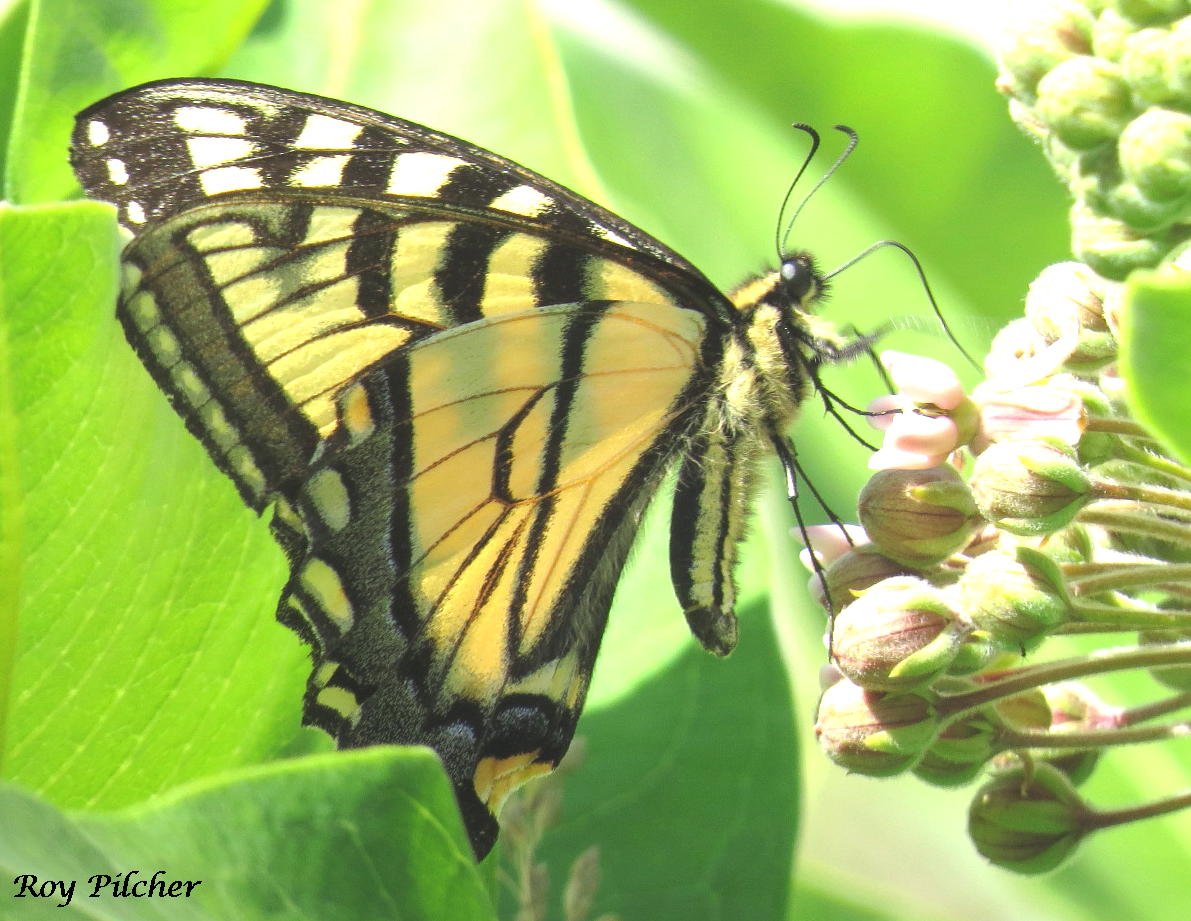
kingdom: Animalia
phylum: Arthropoda
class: Insecta
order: Lepidoptera
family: Papilionidae
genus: Pterourus
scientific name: Pterourus glaucus
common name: Eastern Tiger Swallowtail
